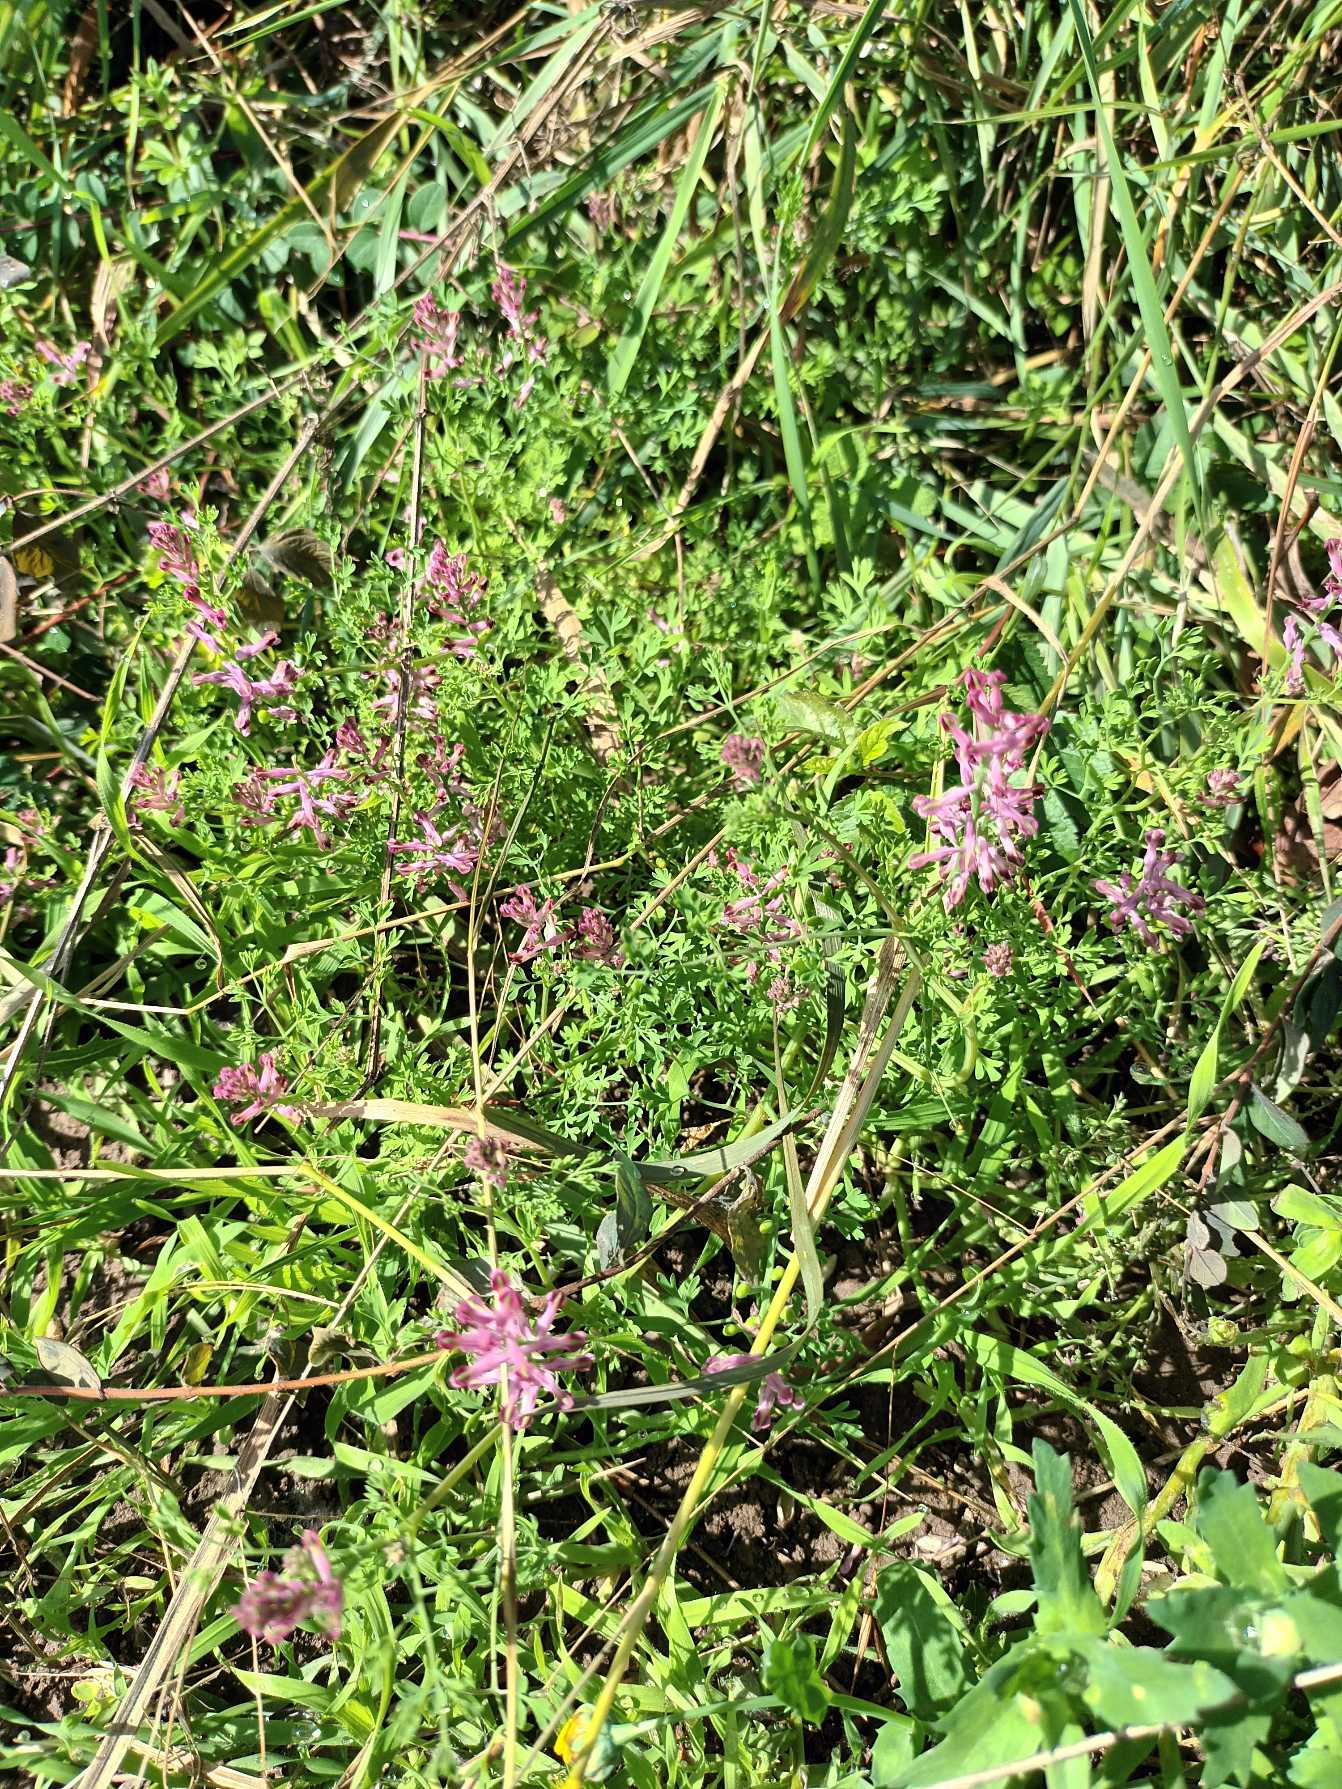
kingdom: Plantae
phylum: Tracheophyta
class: Magnoliopsida
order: Ranunculales
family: Papaveraceae
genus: Fumaria
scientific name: Fumaria officinalis
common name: Læge-jordrøg
